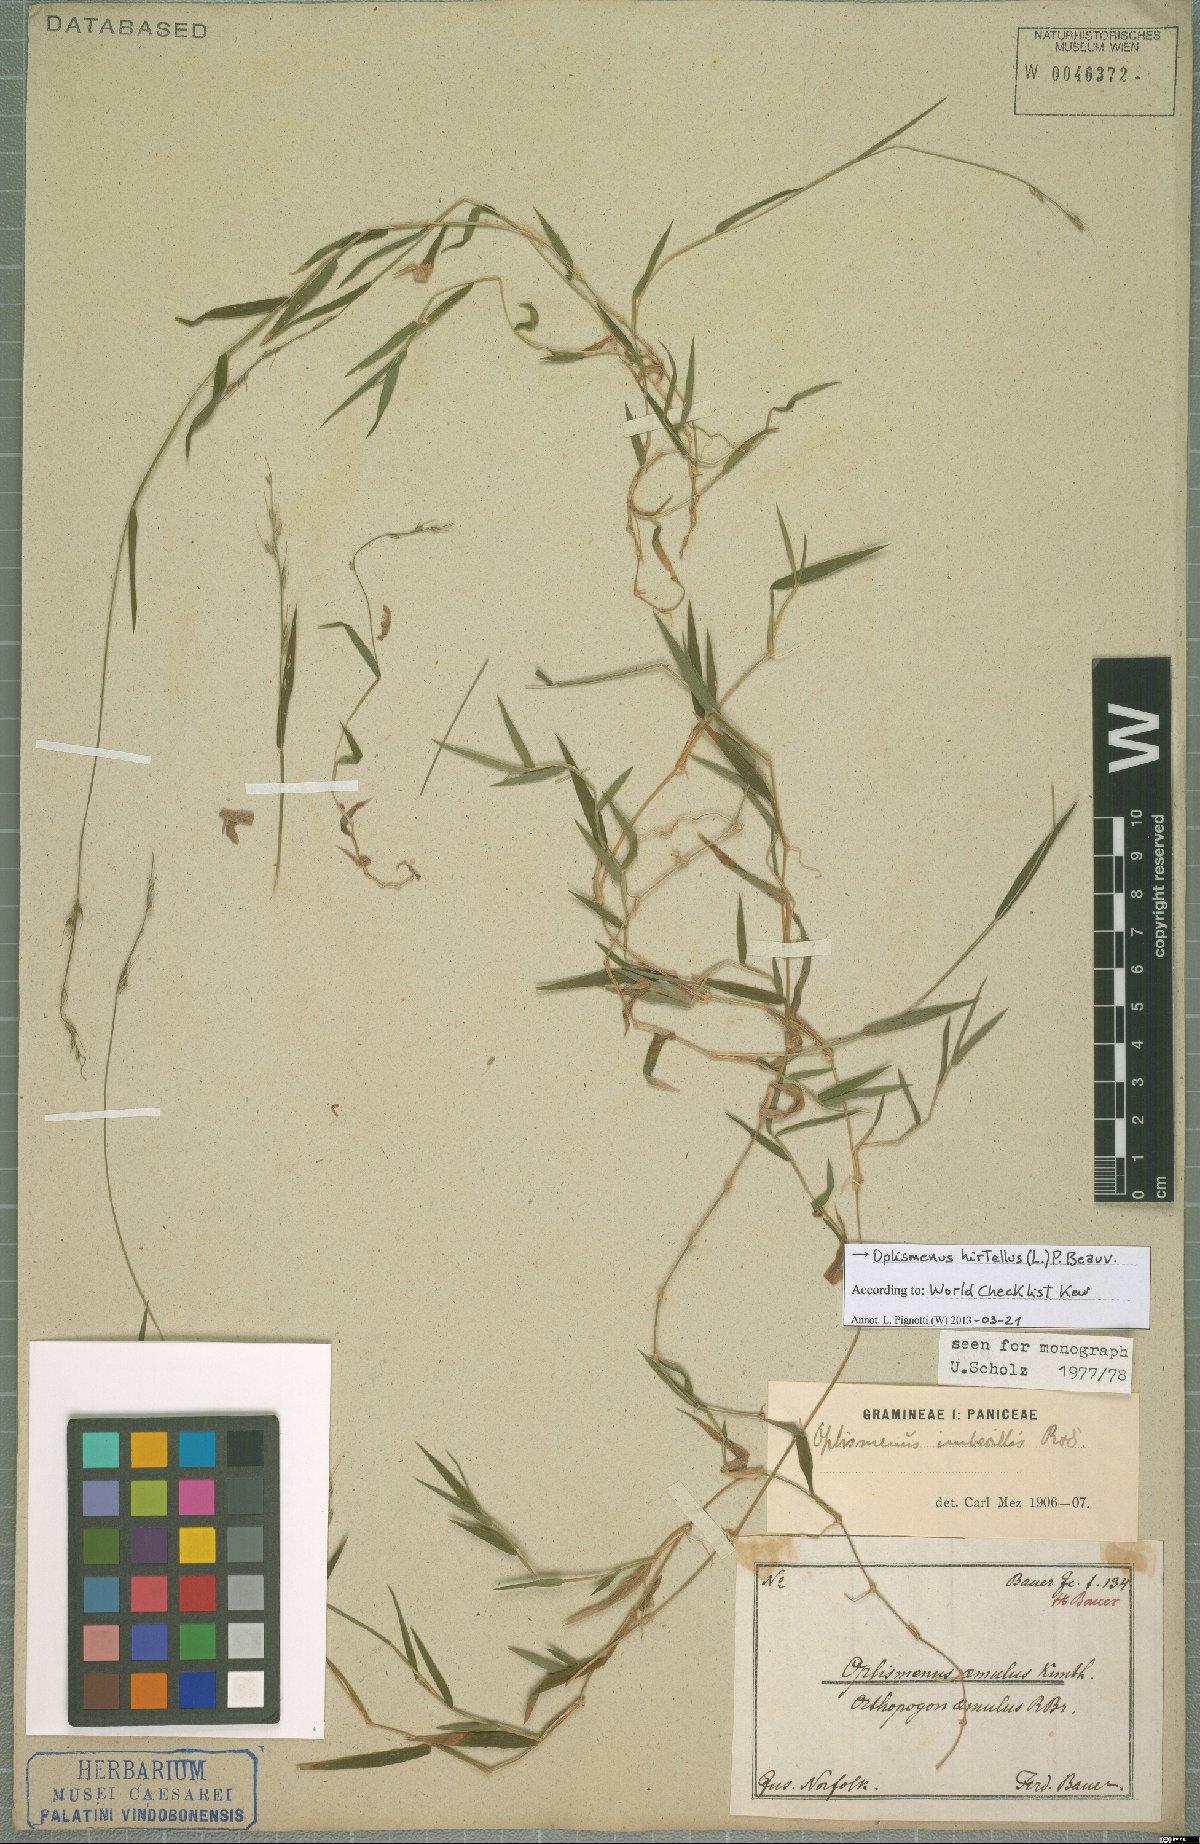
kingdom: Plantae
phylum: Tracheophyta
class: Liliopsida
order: Poales
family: Poaceae
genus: Oplismenus
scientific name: Oplismenus hirtellus
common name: Basketgrass
